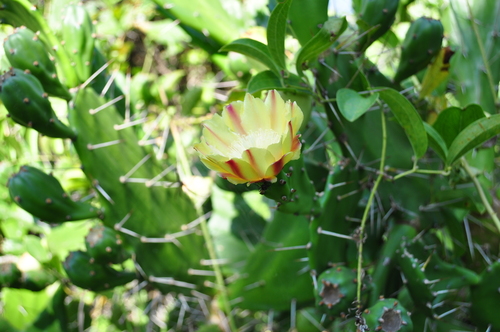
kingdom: Plantae
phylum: Tracheophyta
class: Magnoliopsida
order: Caryophyllales
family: Cactaceae
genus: Opuntia
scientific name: Opuntia monacantha
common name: Common pricklypear
